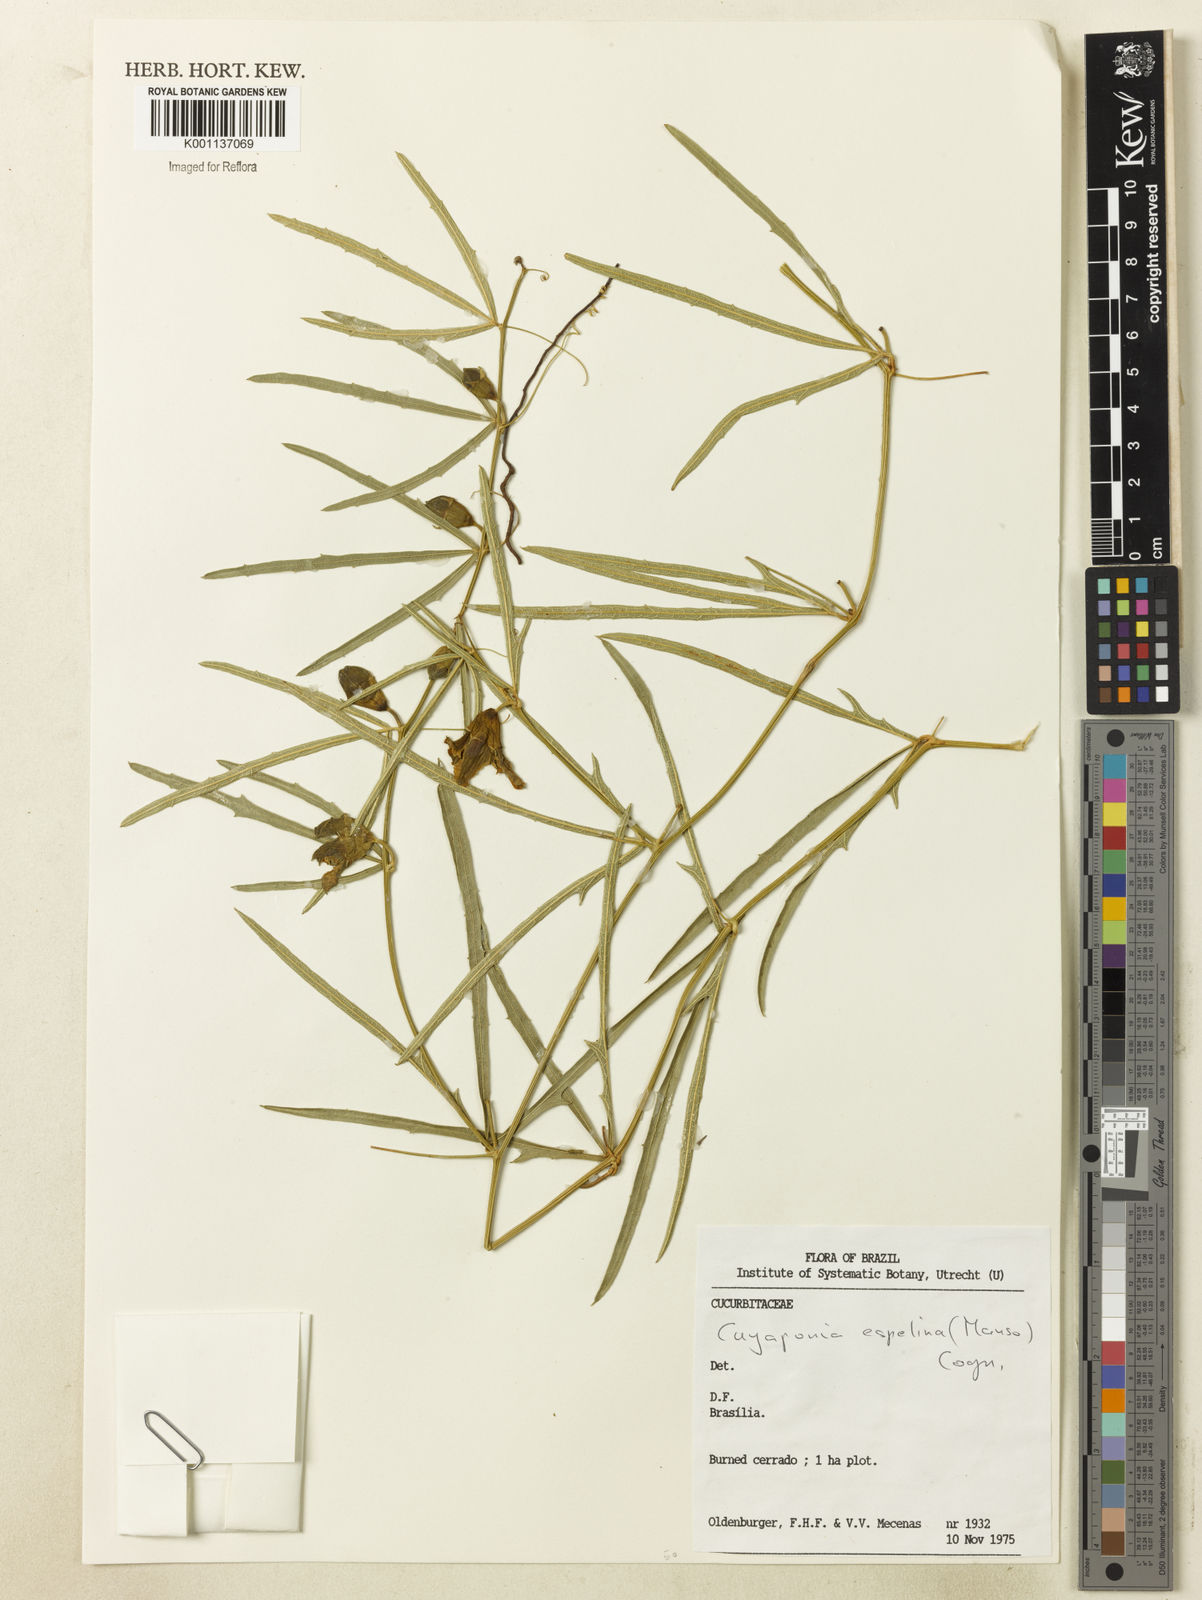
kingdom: Plantae
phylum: Tracheophyta
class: Magnoliopsida
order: Cucurbitales
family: Cucurbitaceae
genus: Cayaponia
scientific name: Cayaponia espelina
